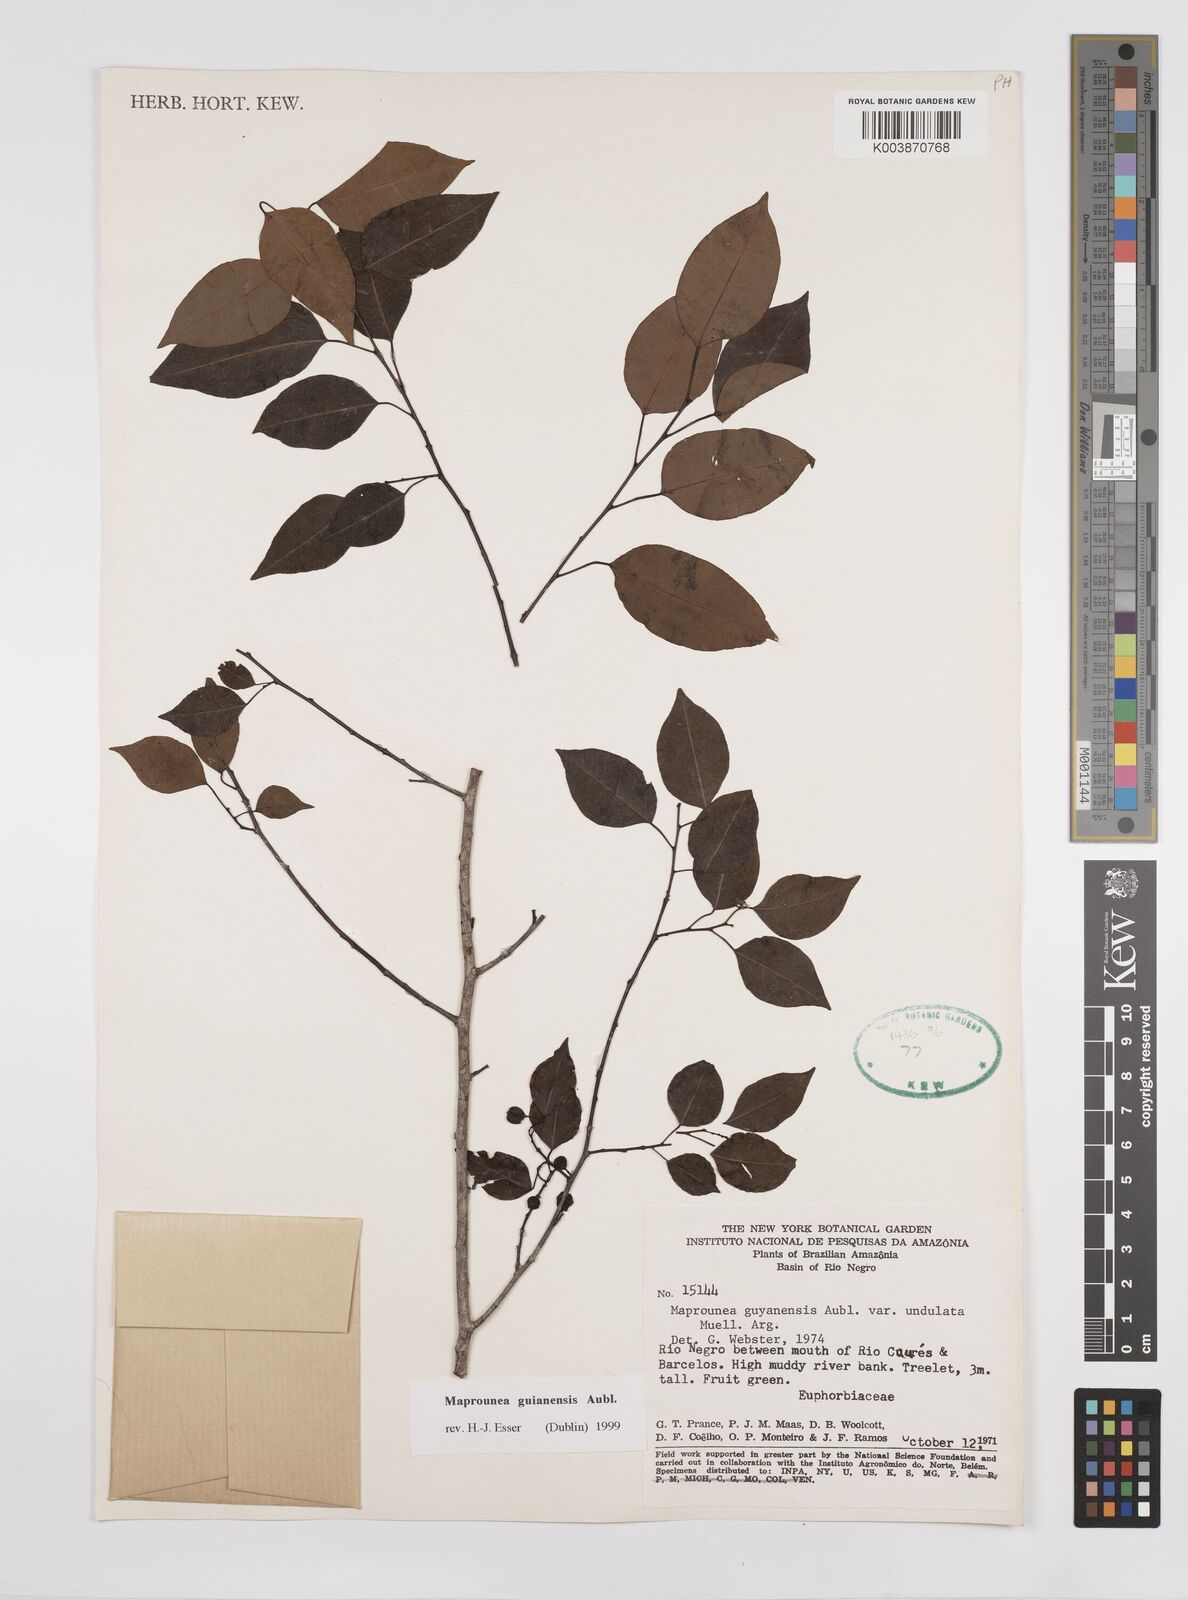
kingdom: Plantae
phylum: Tracheophyta
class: Magnoliopsida
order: Malpighiales
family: Euphorbiaceae
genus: Maprounea
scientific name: Maprounea guianensis
